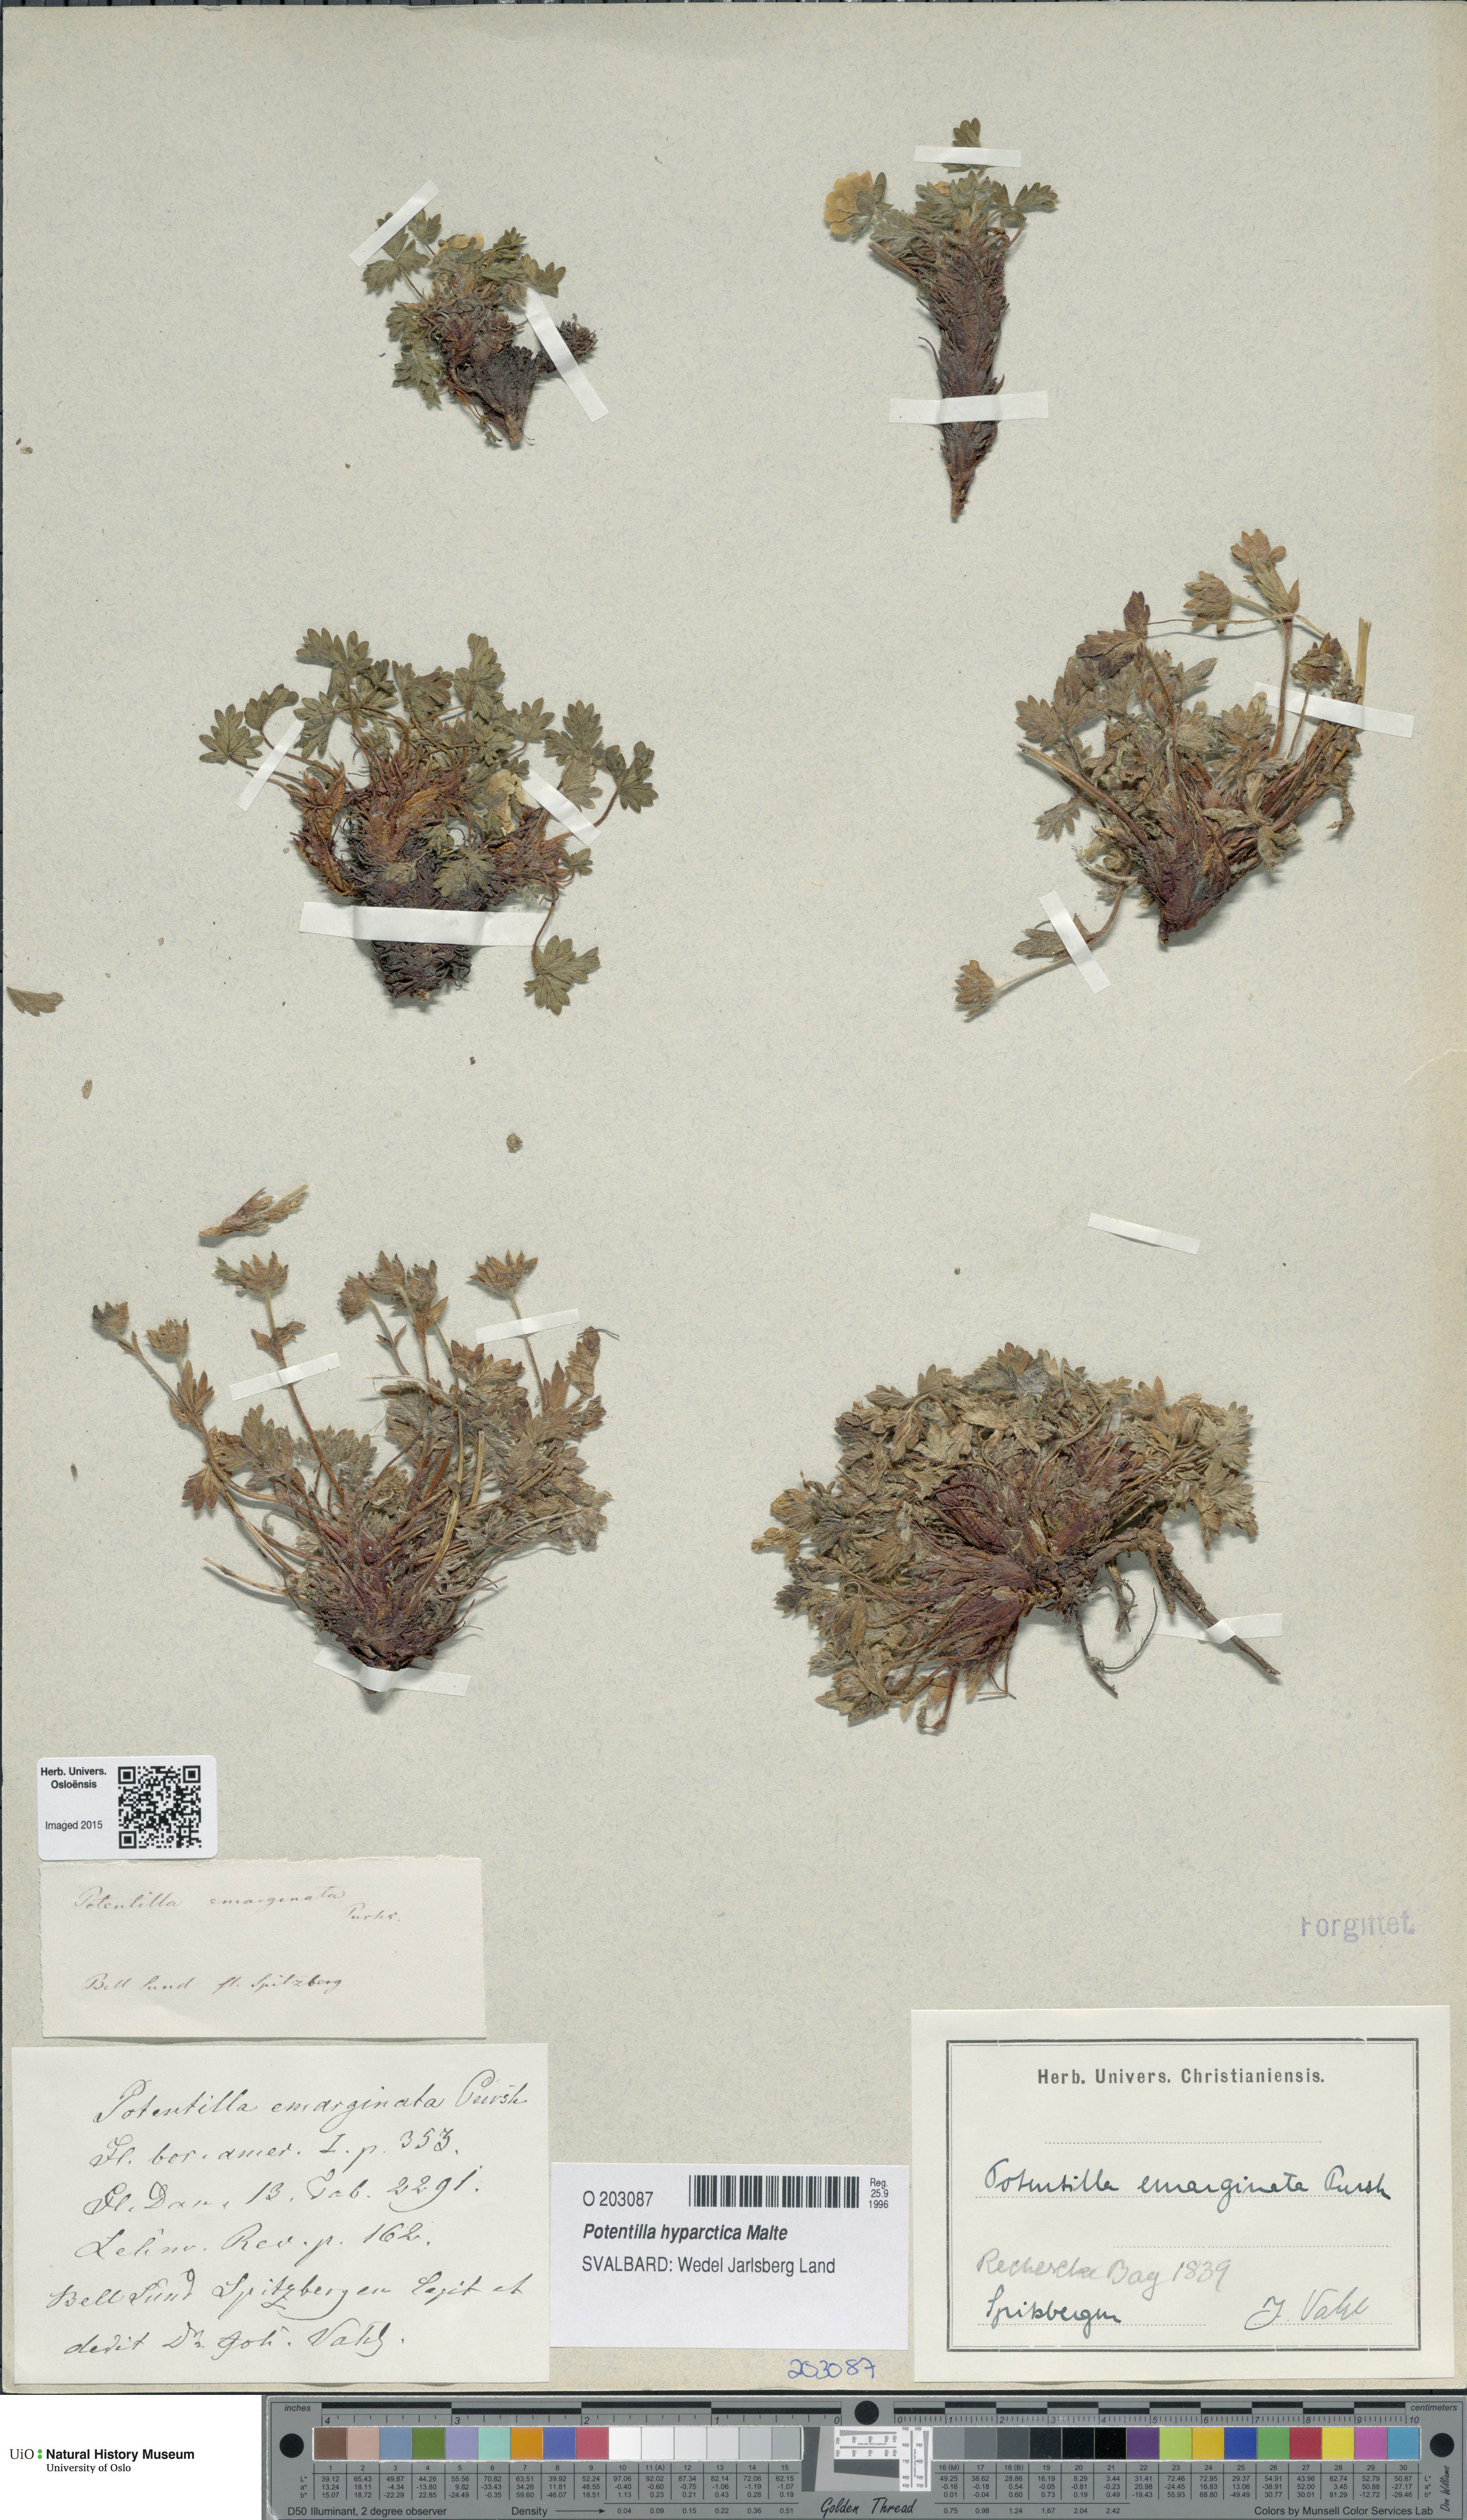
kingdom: Plantae
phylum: Tracheophyta
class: Magnoliopsida
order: Rosales
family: Rosaceae
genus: Potentilla
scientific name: Potentilla hyparctica
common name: Arctic cinquefoil
